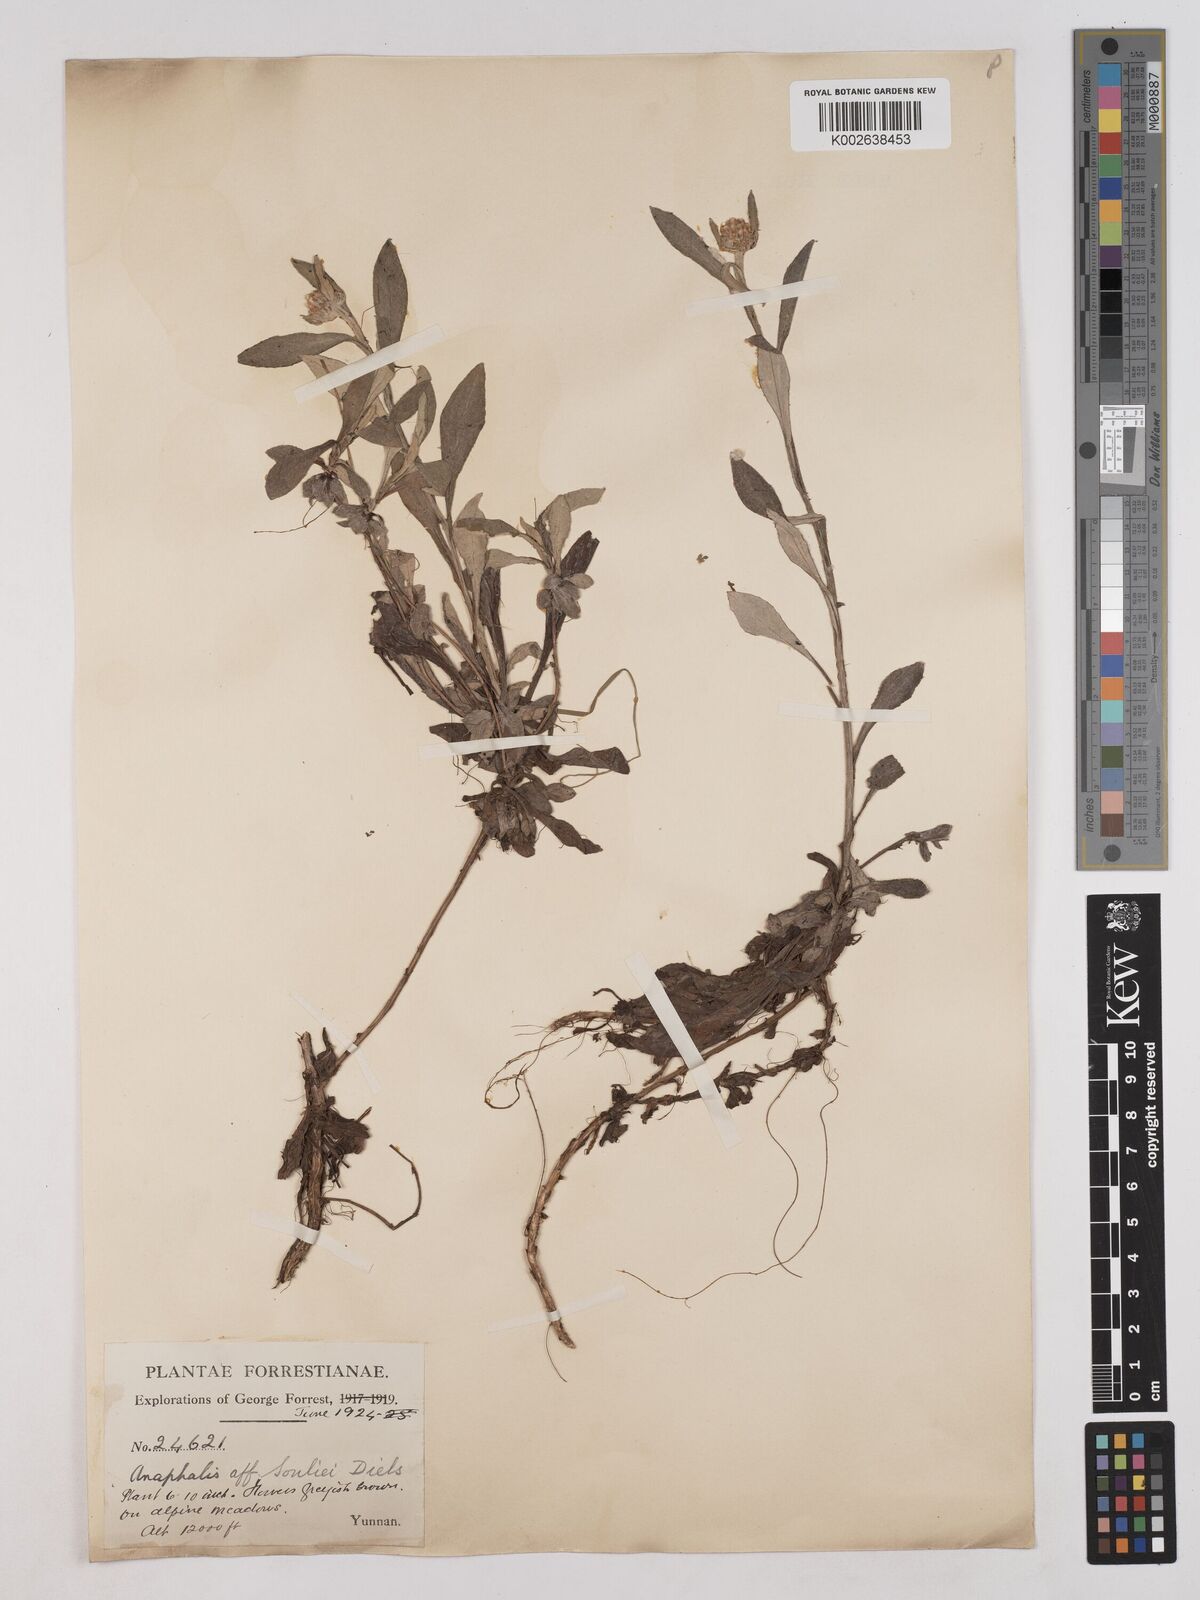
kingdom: Plantae
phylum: Tracheophyta
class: Magnoliopsida
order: Asterales
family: Asteraceae
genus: Anaphalis
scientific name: Anaphalis souliei
